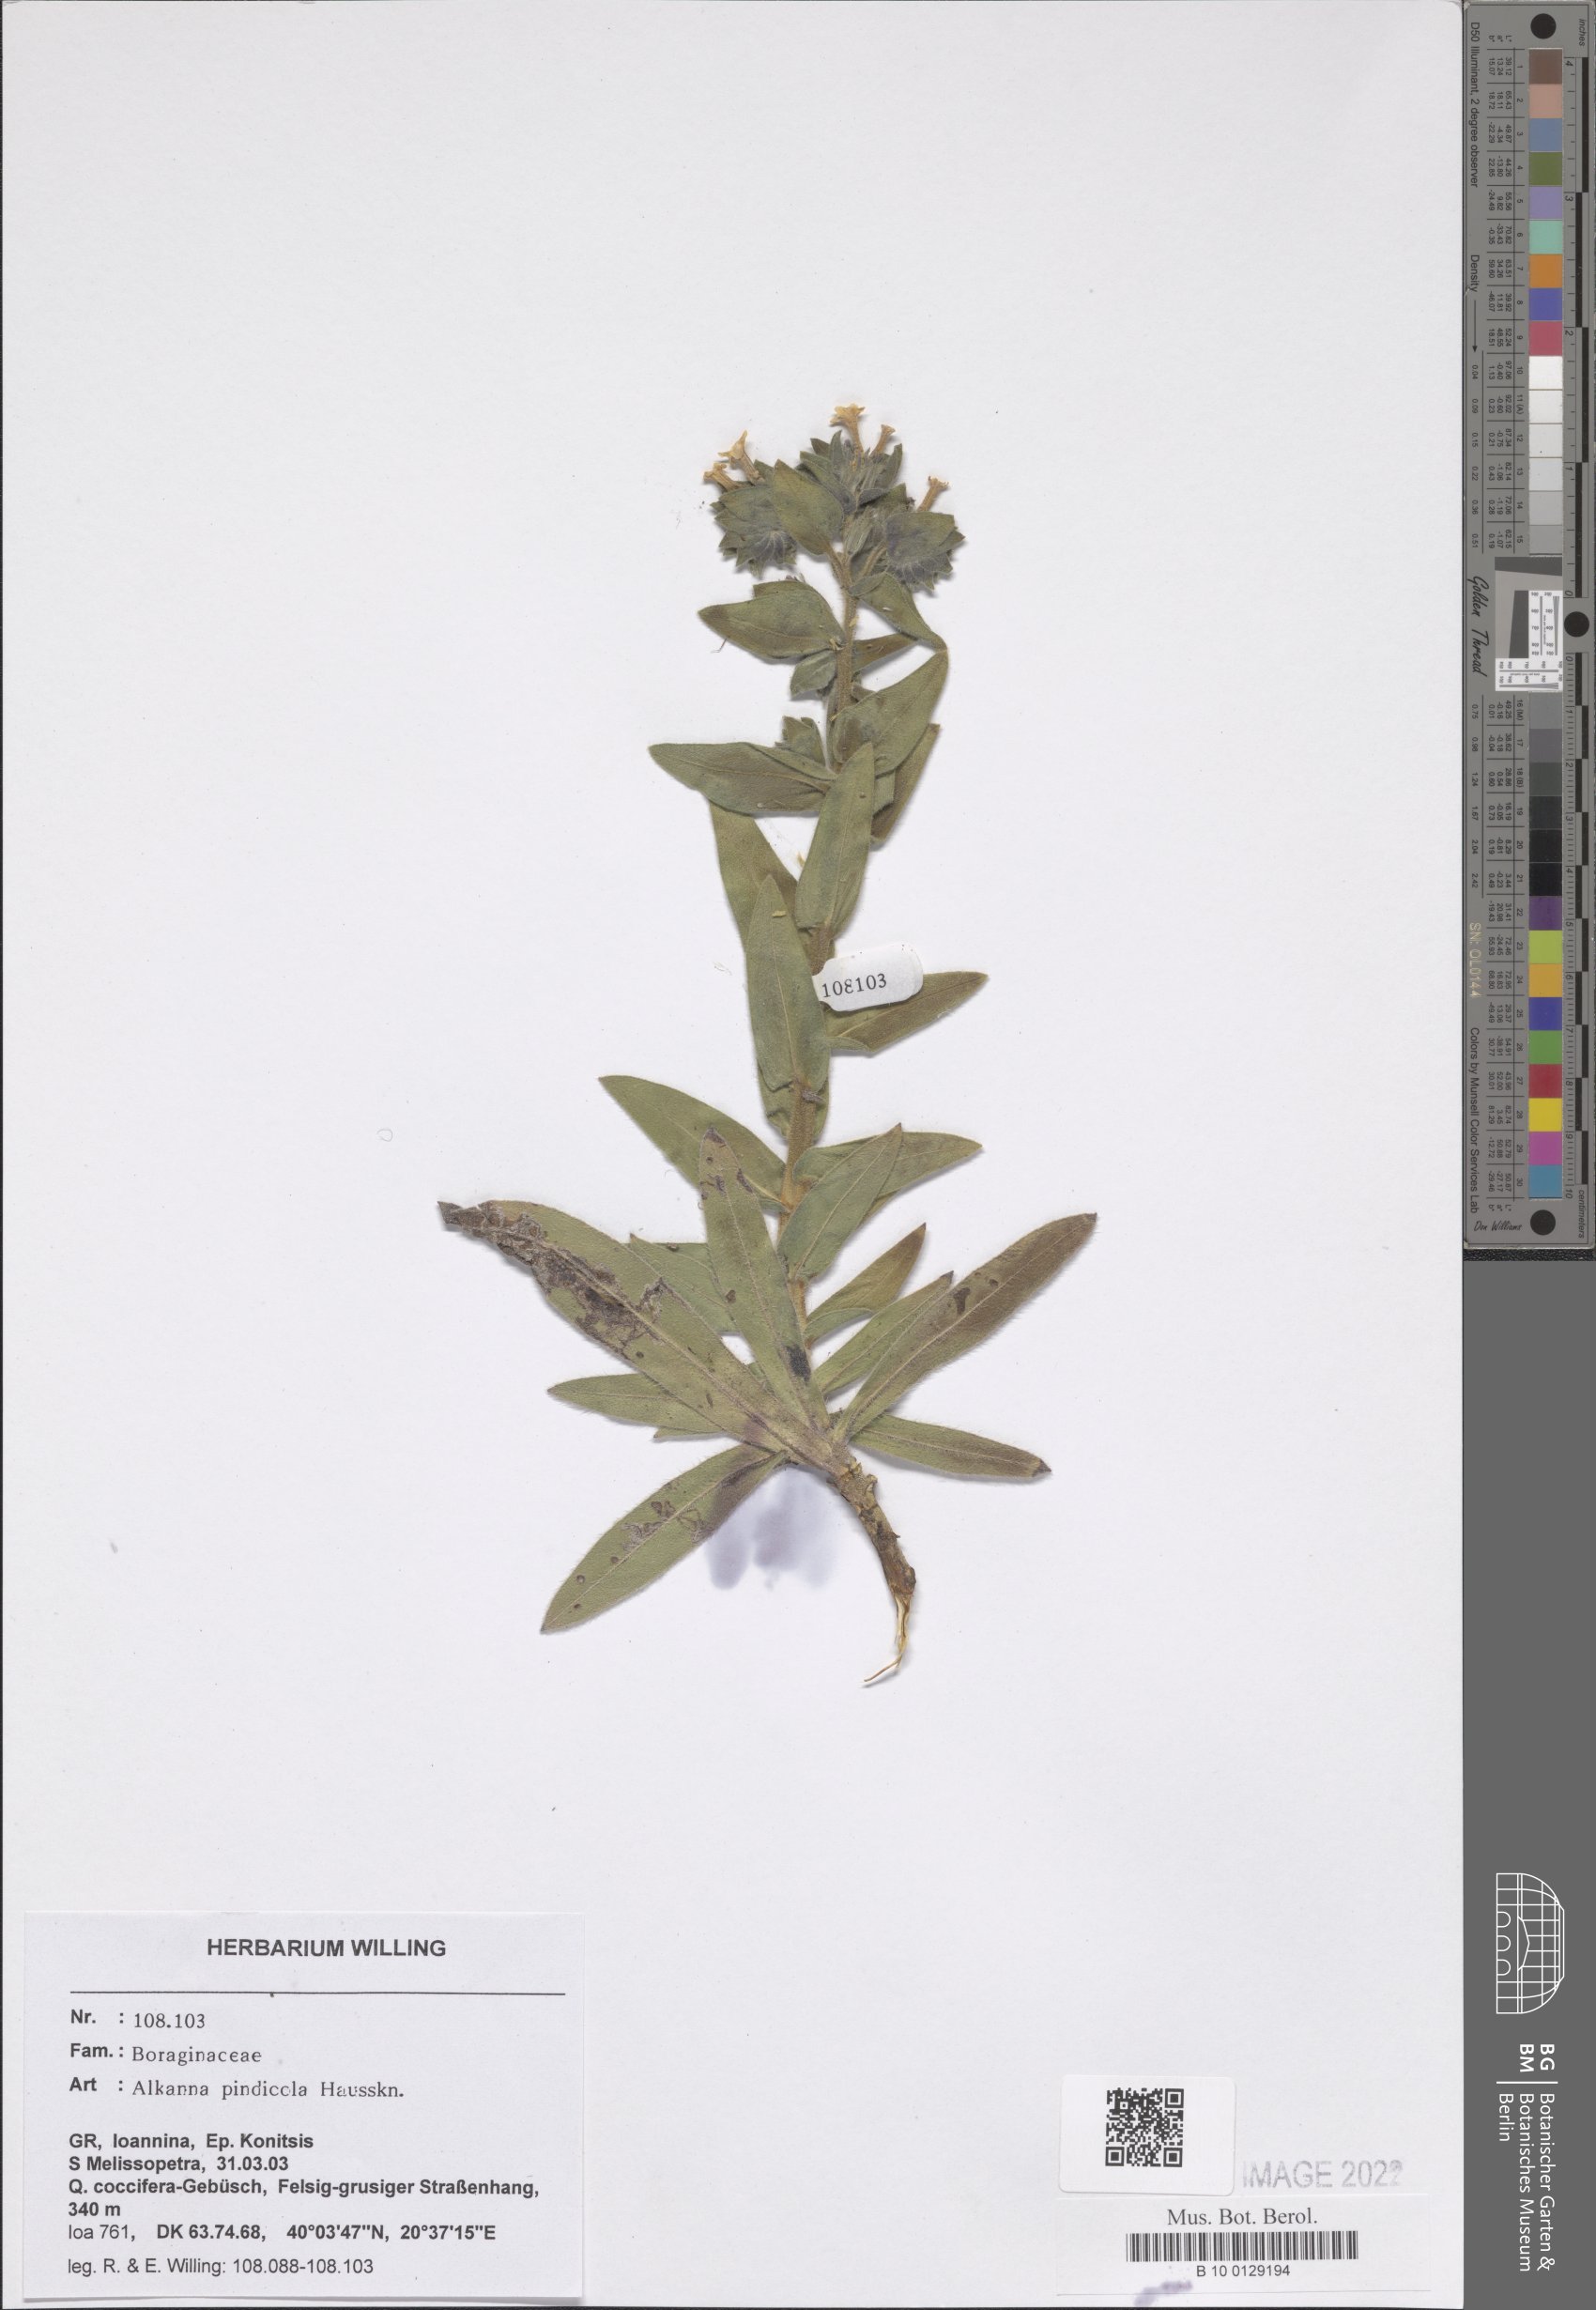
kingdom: Plantae
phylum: Tracheophyta
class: Magnoliopsida
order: Boraginales
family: Boraginaceae
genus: Alkanna
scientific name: Alkanna pindicola
